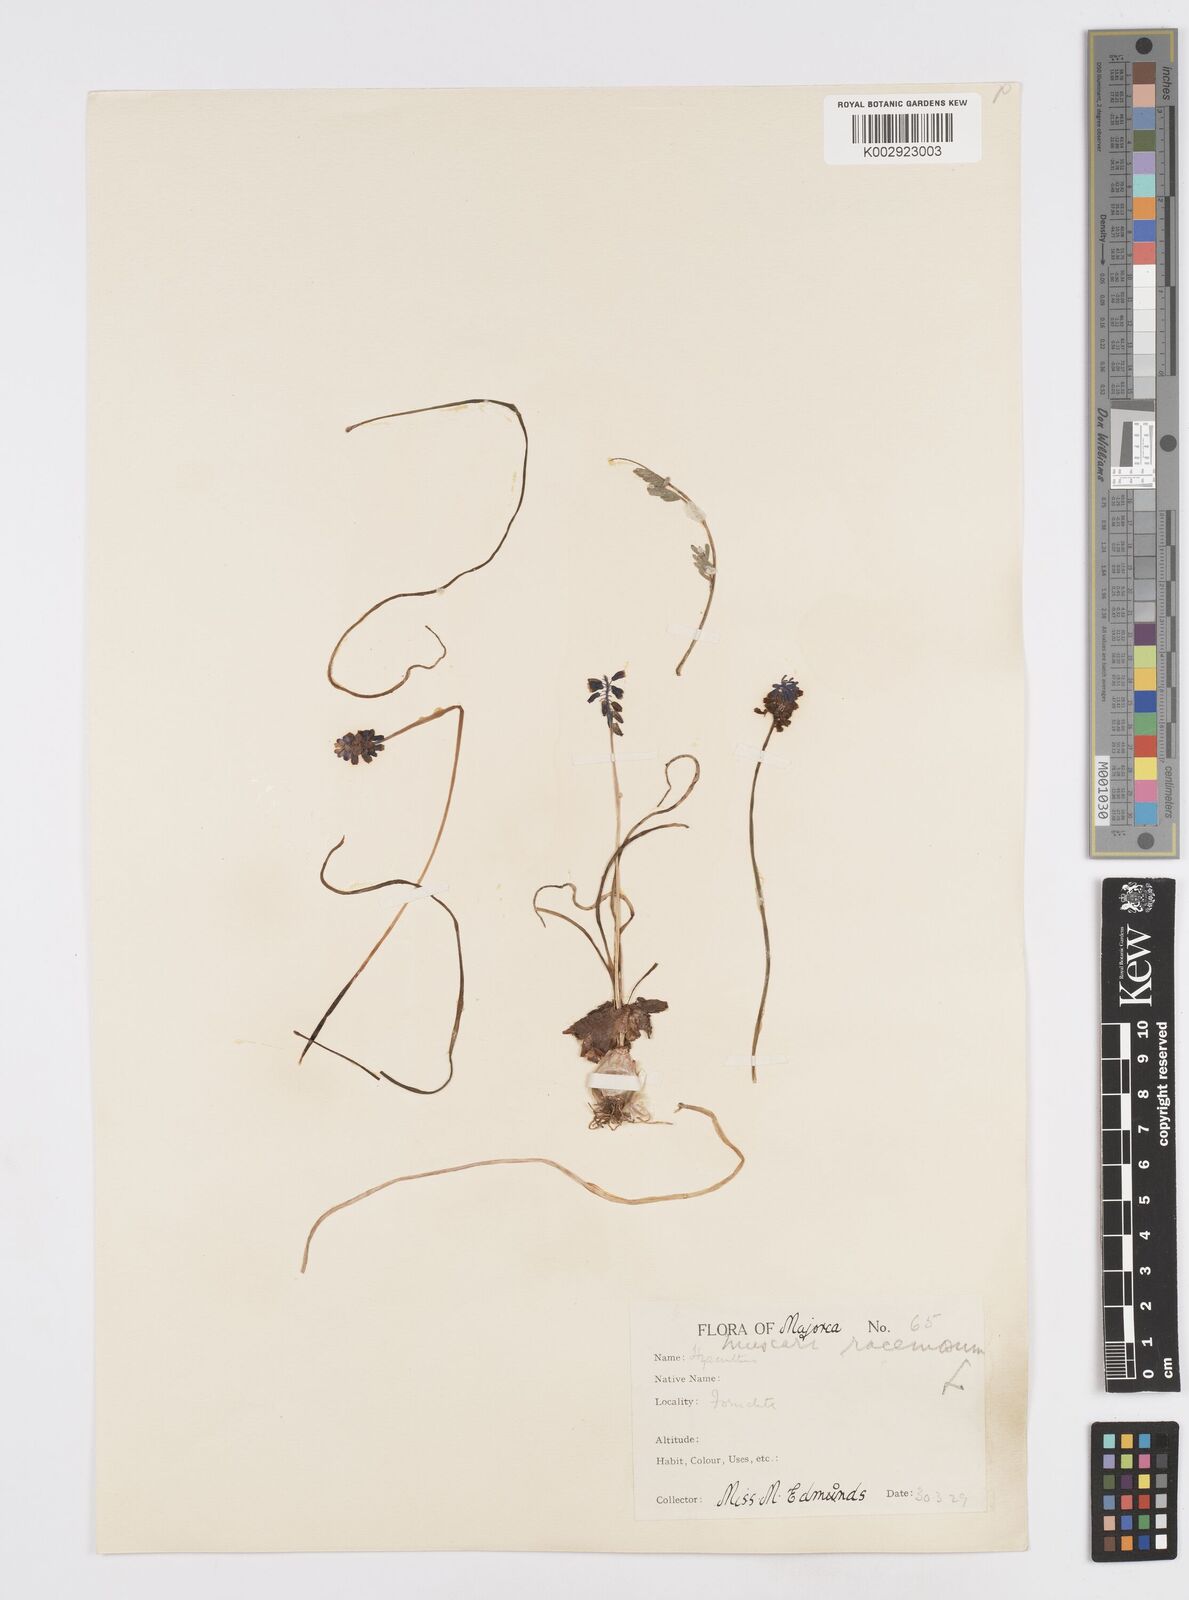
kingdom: Plantae
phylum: Tracheophyta
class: Liliopsida
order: Asparagales
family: Asparagaceae
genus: Muscarimia
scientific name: Muscarimia muscari
